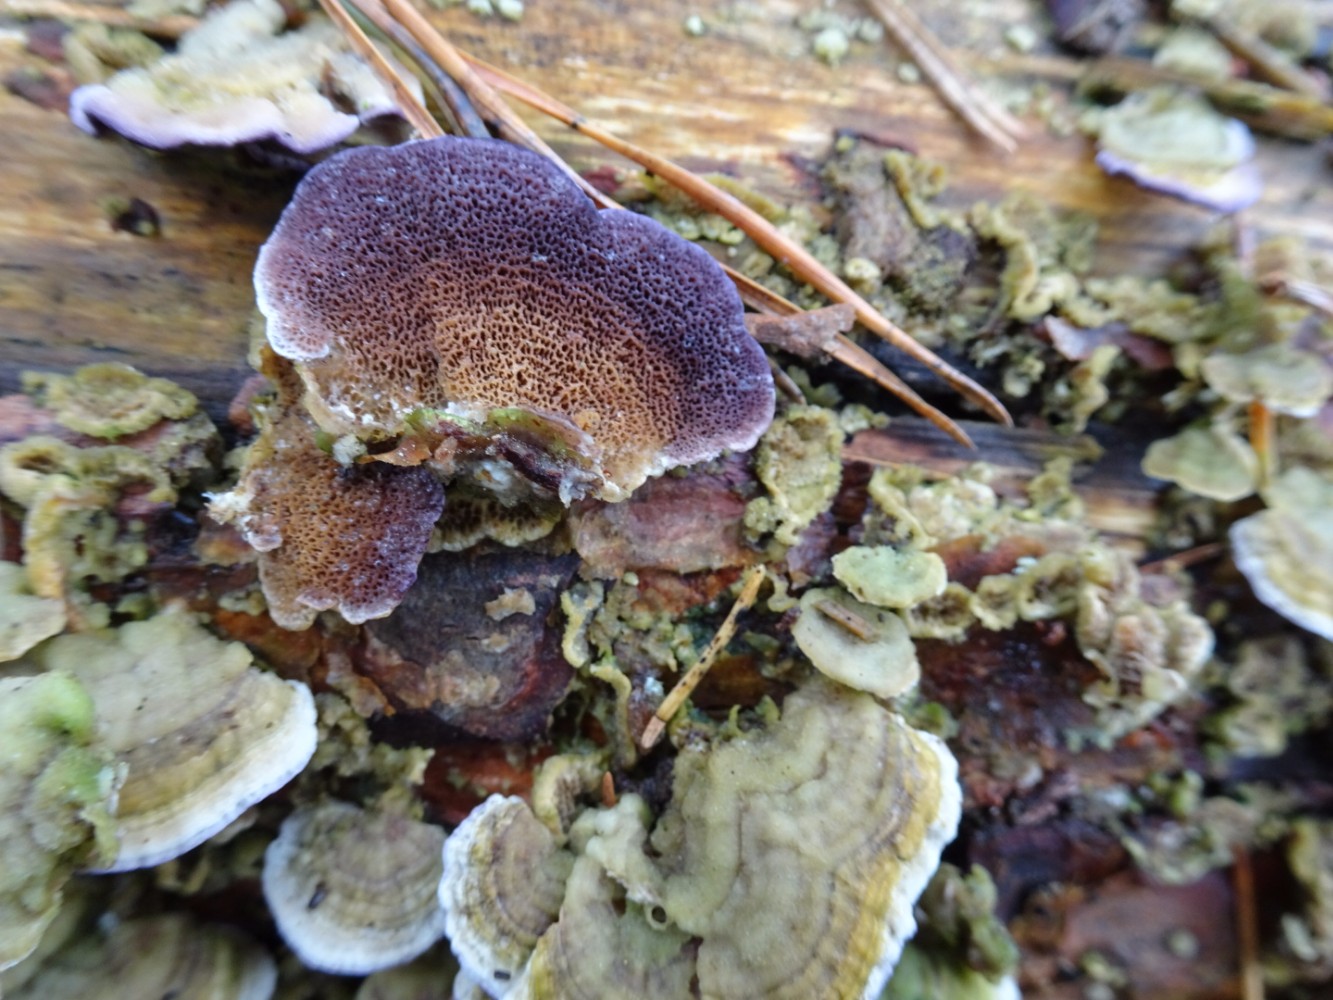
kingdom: Fungi
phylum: Basidiomycota
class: Agaricomycetes
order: Hymenochaetales
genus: Trichaptum
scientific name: Trichaptum abietinum
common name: almindelig violporesvamp
